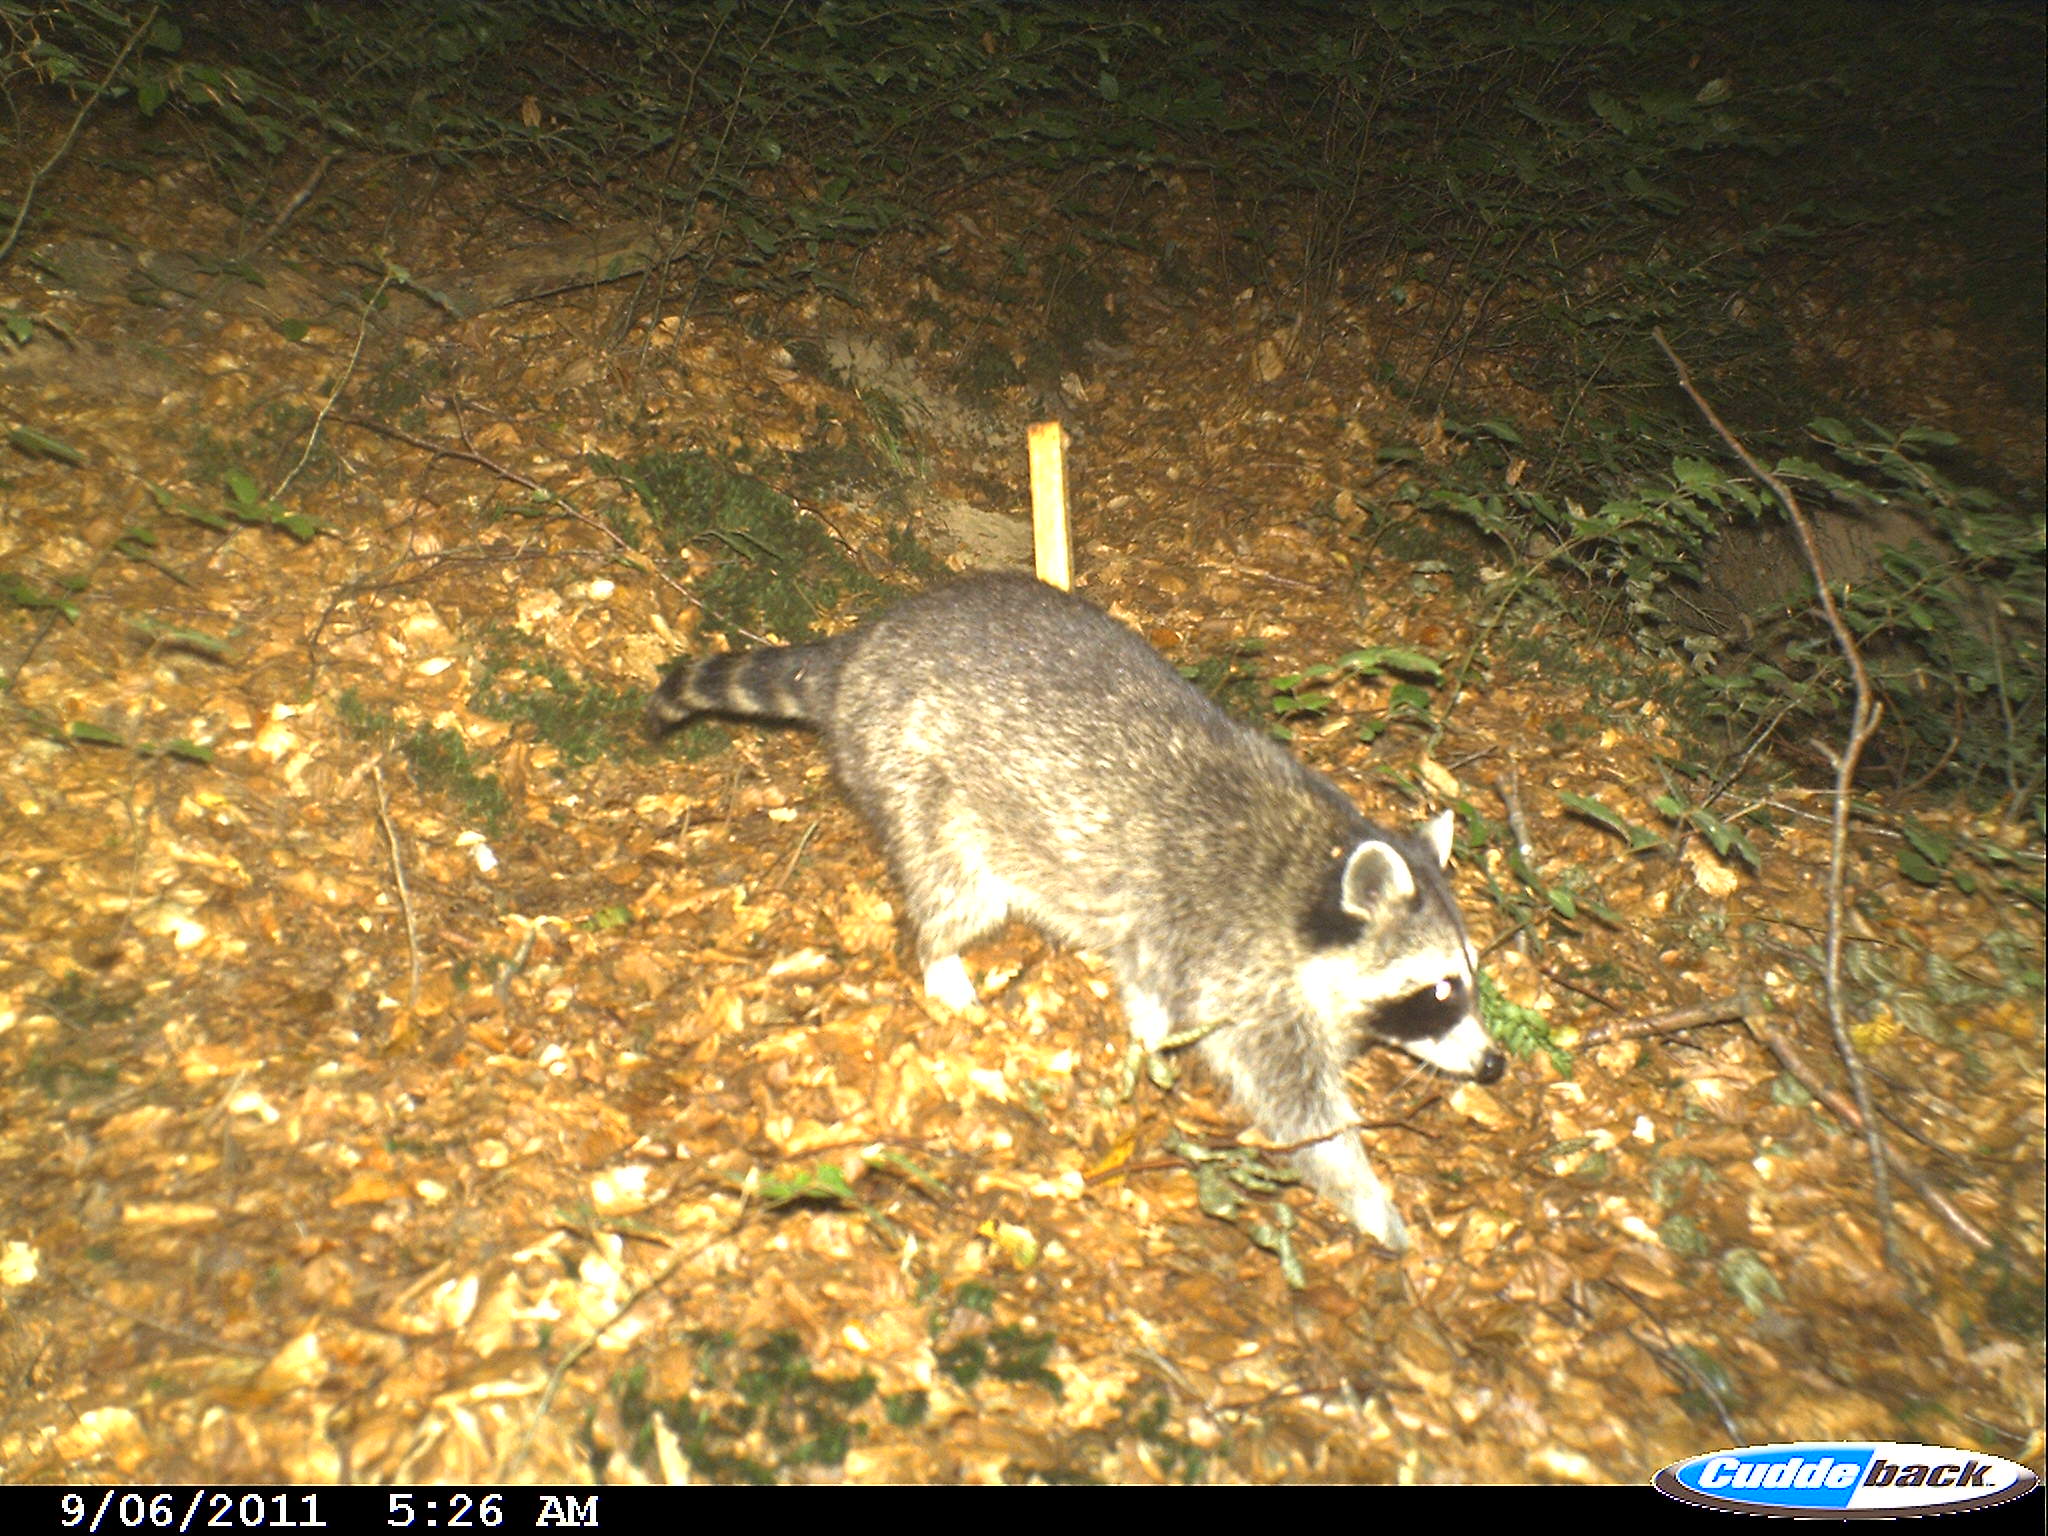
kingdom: Animalia
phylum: Chordata
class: Mammalia
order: Carnivora
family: Procyonidae
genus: Procyon
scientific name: Procyon lotor
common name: Raccoon
